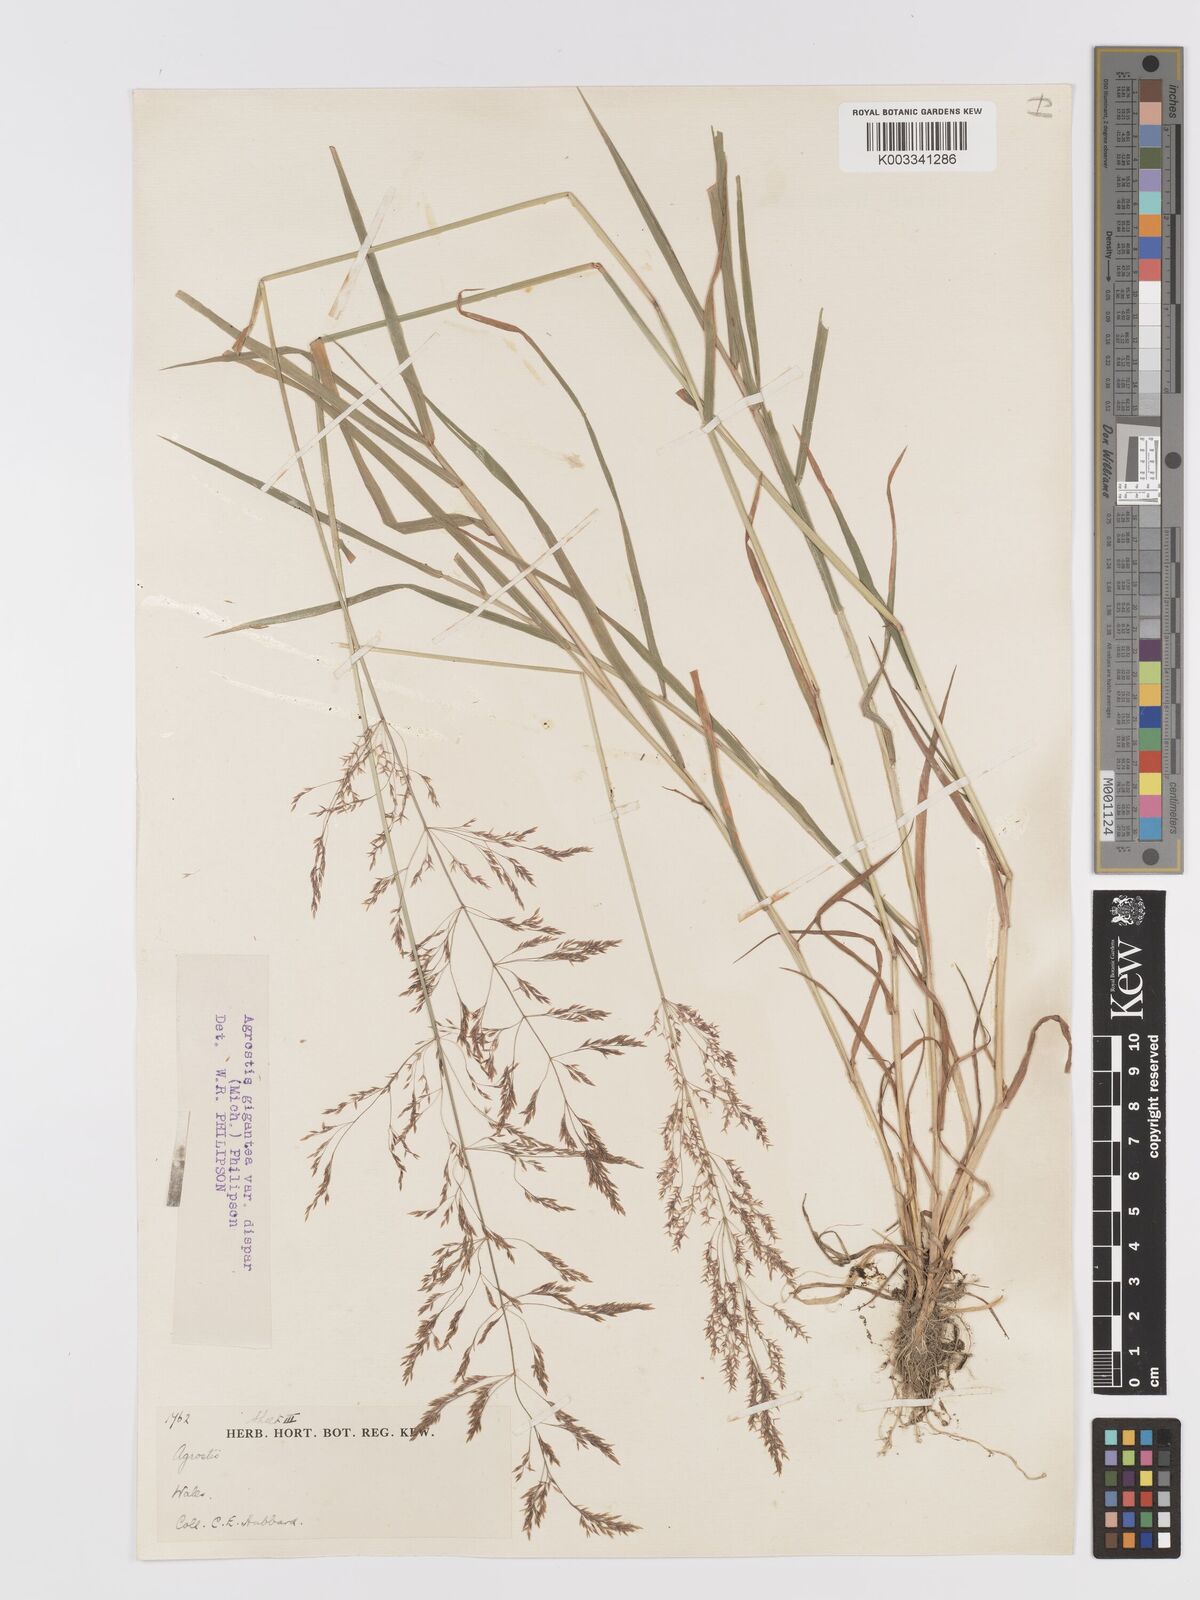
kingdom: Plantae
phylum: Tracheophyta
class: Liliopsida
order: Poales
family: Poaceae
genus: Agrostis
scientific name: Agrostis gigantea
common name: Black bent
